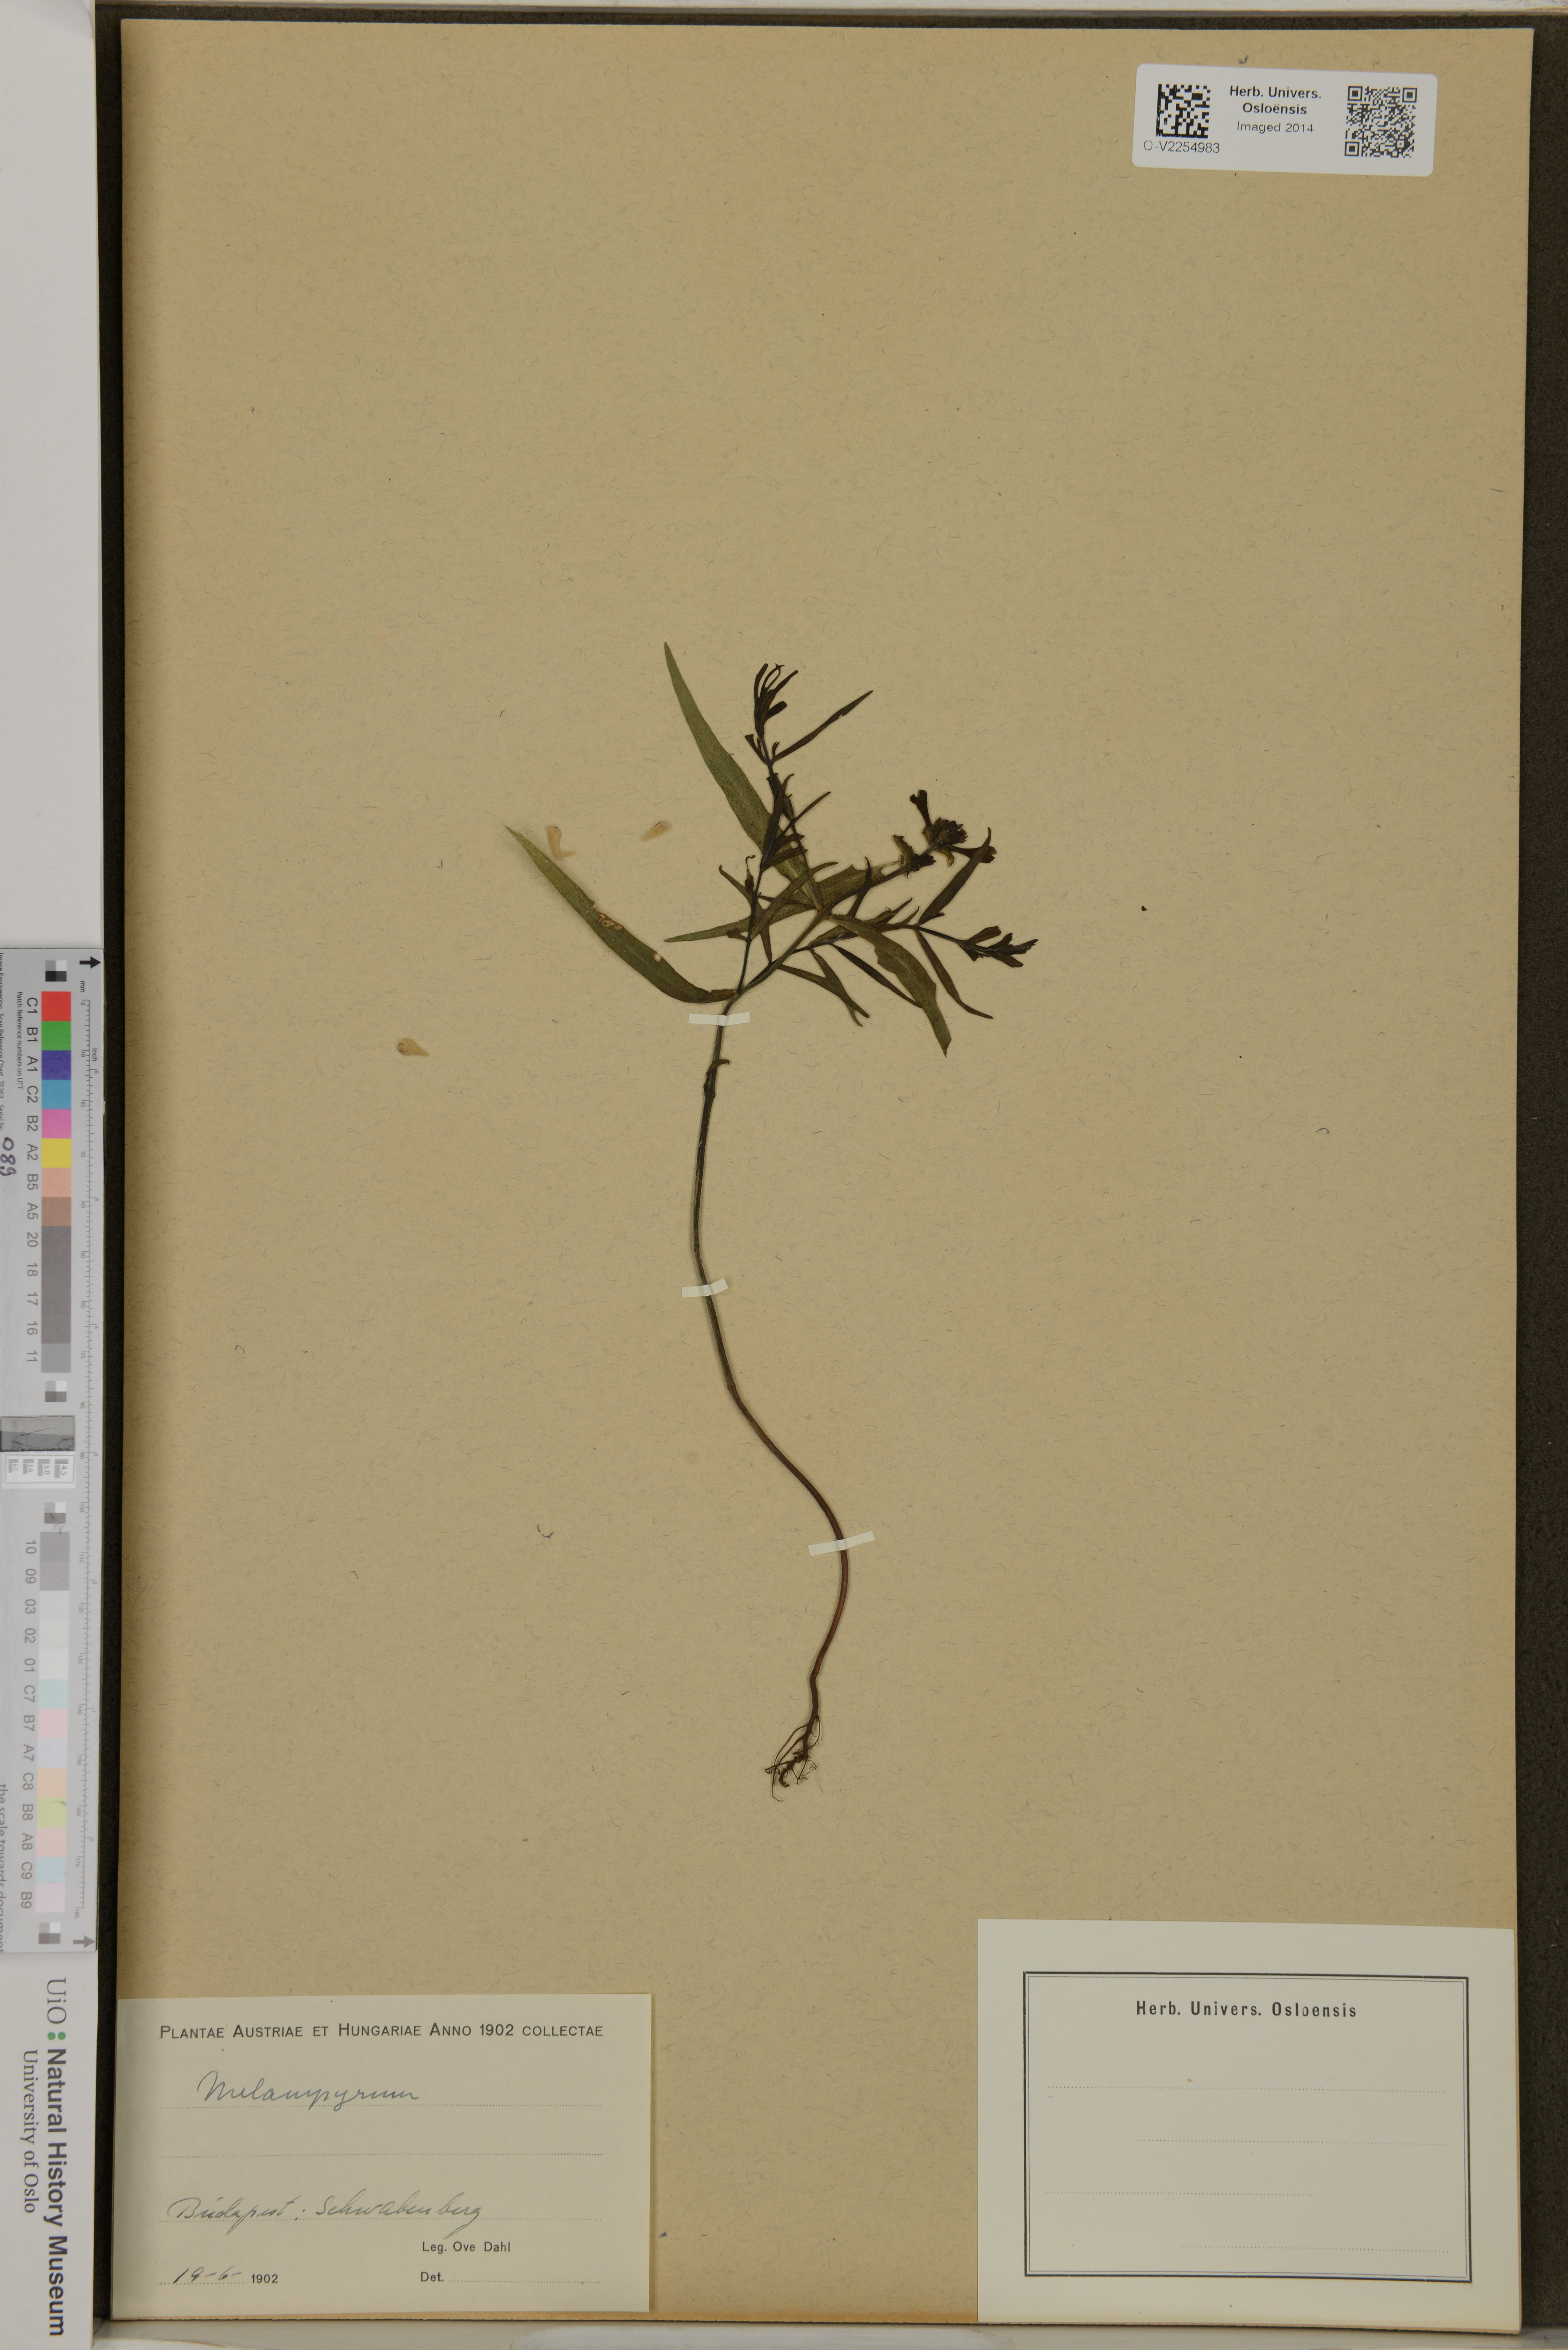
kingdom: Plantae
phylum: Tracheophyta
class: Magnoliopsida
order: Lamiales
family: Orobanchaceae
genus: Melampyrum
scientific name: Melampyrum
